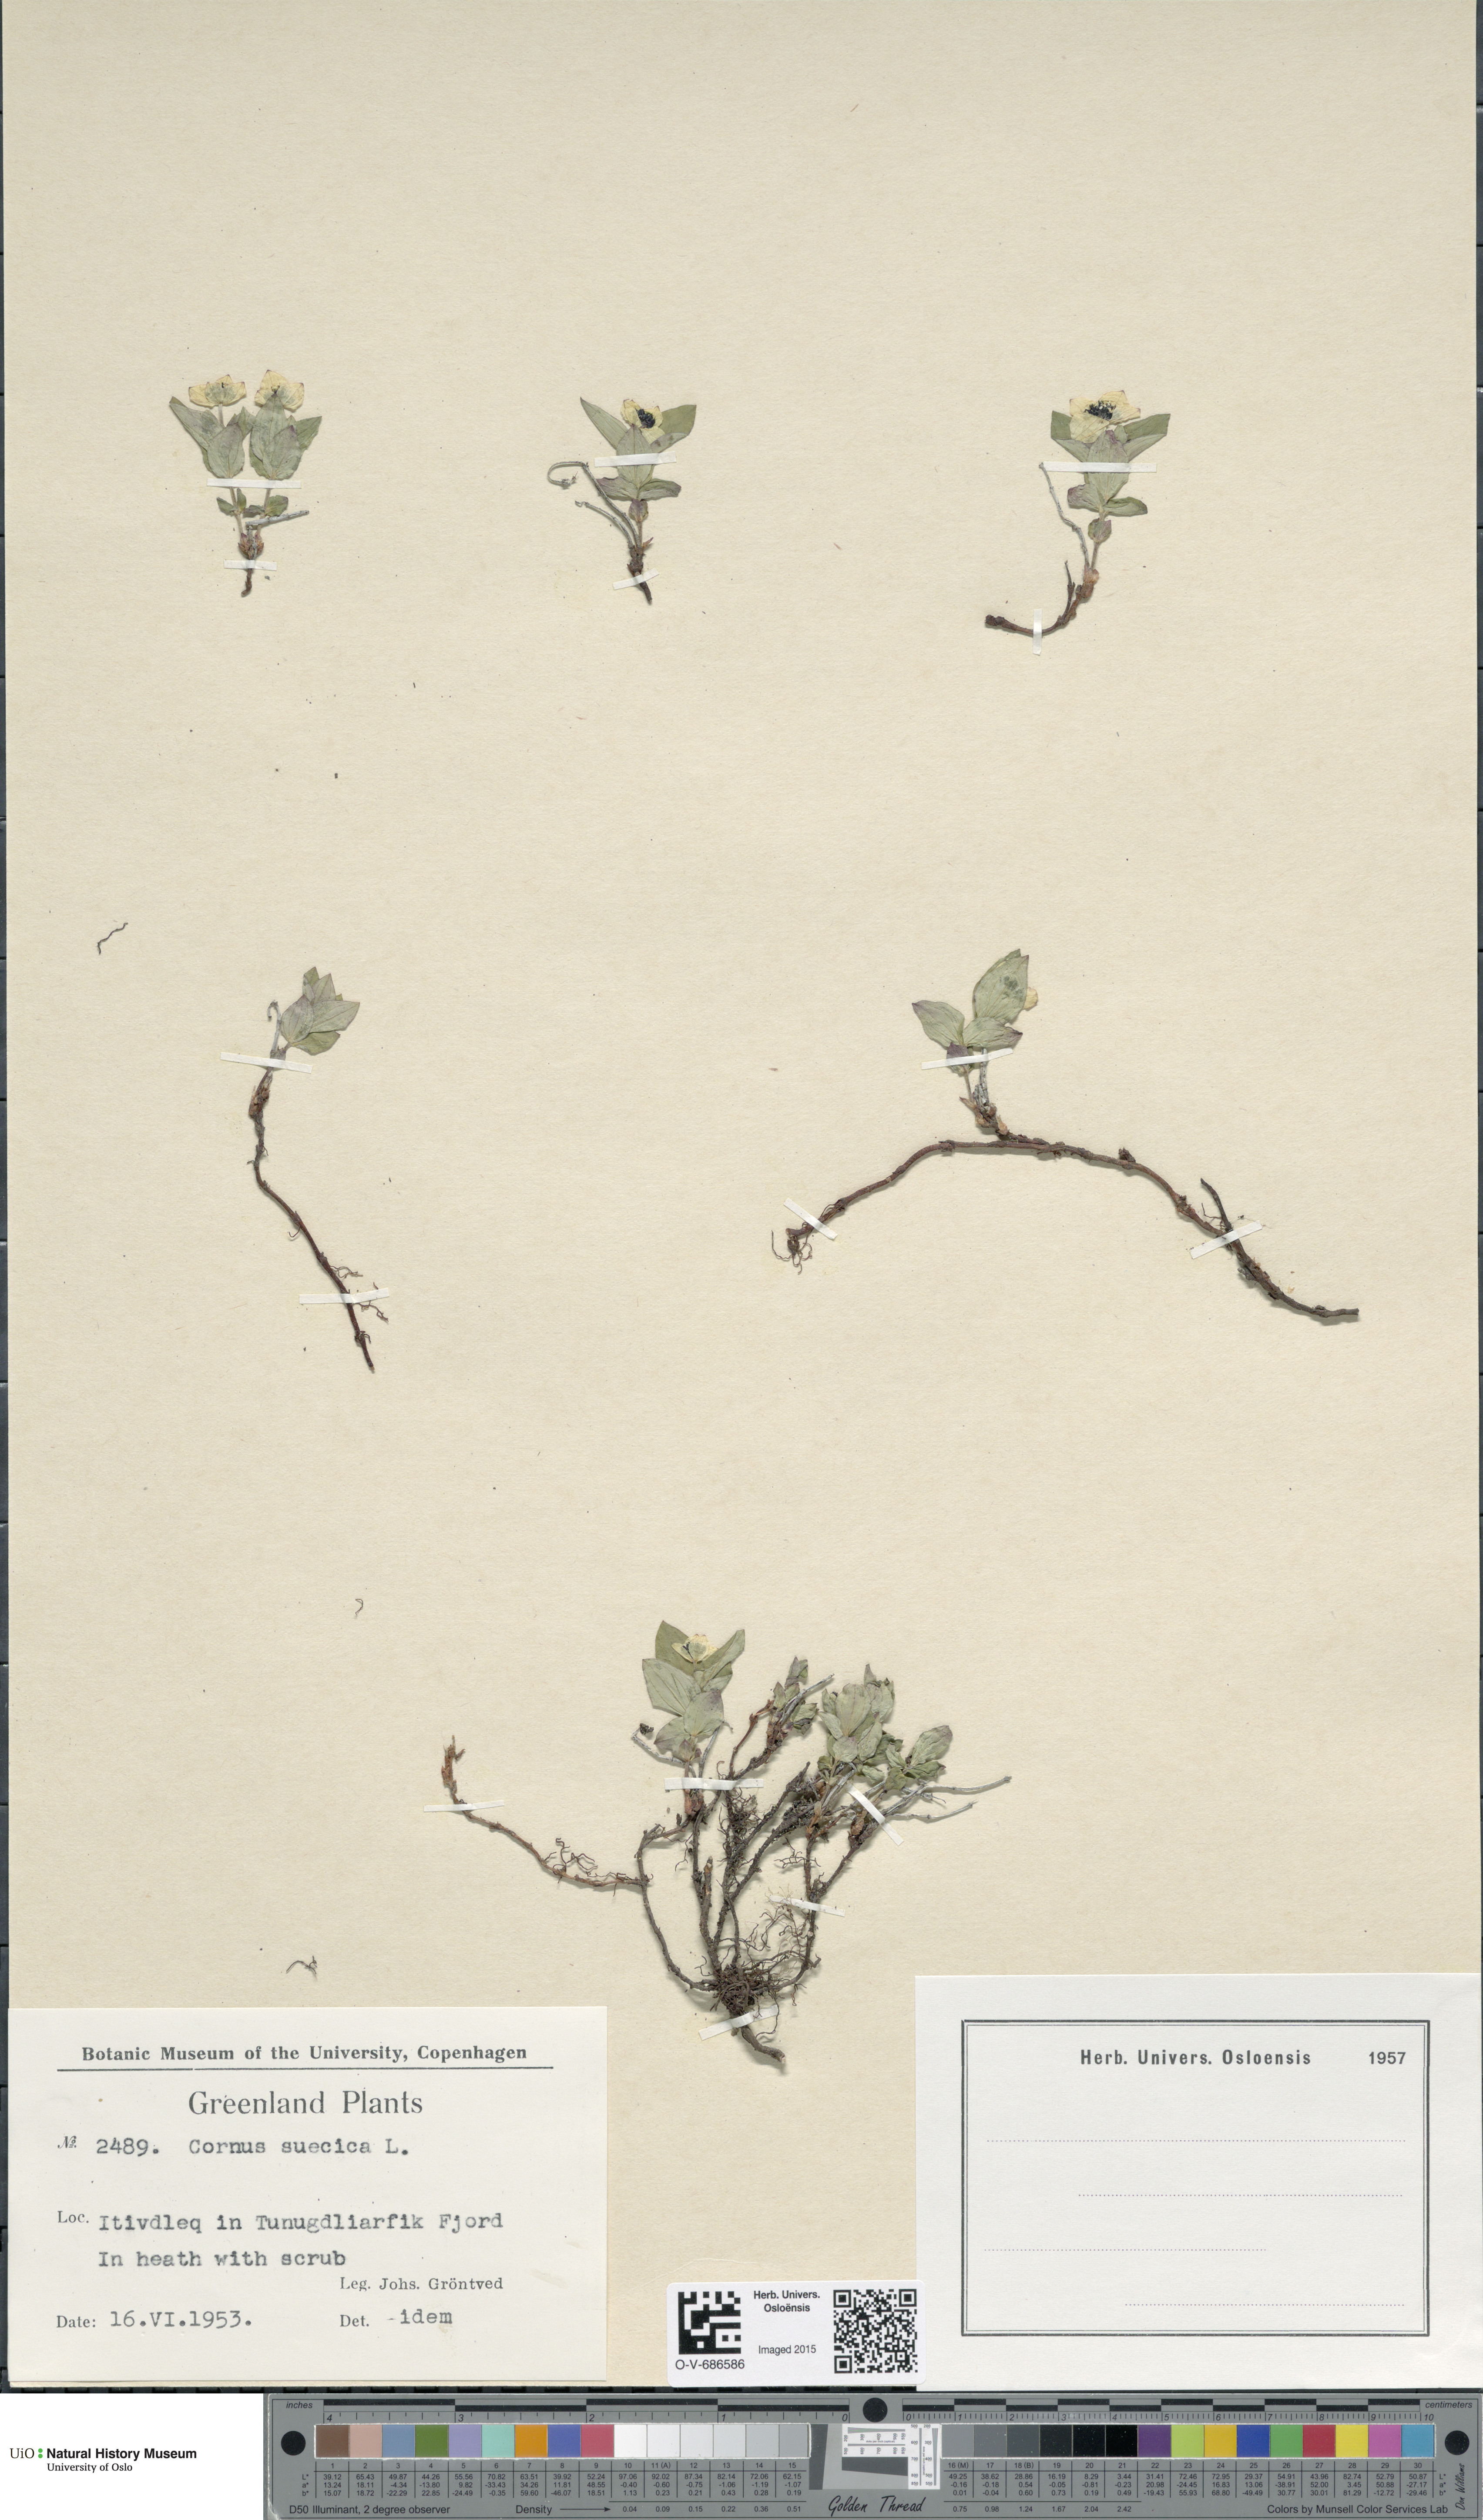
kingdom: Plantae
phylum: Tracheophyta
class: Magnoliopsida
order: Cornales
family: Cornaceae
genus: Cornus
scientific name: Cornus suecica
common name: Dwarf cornel
